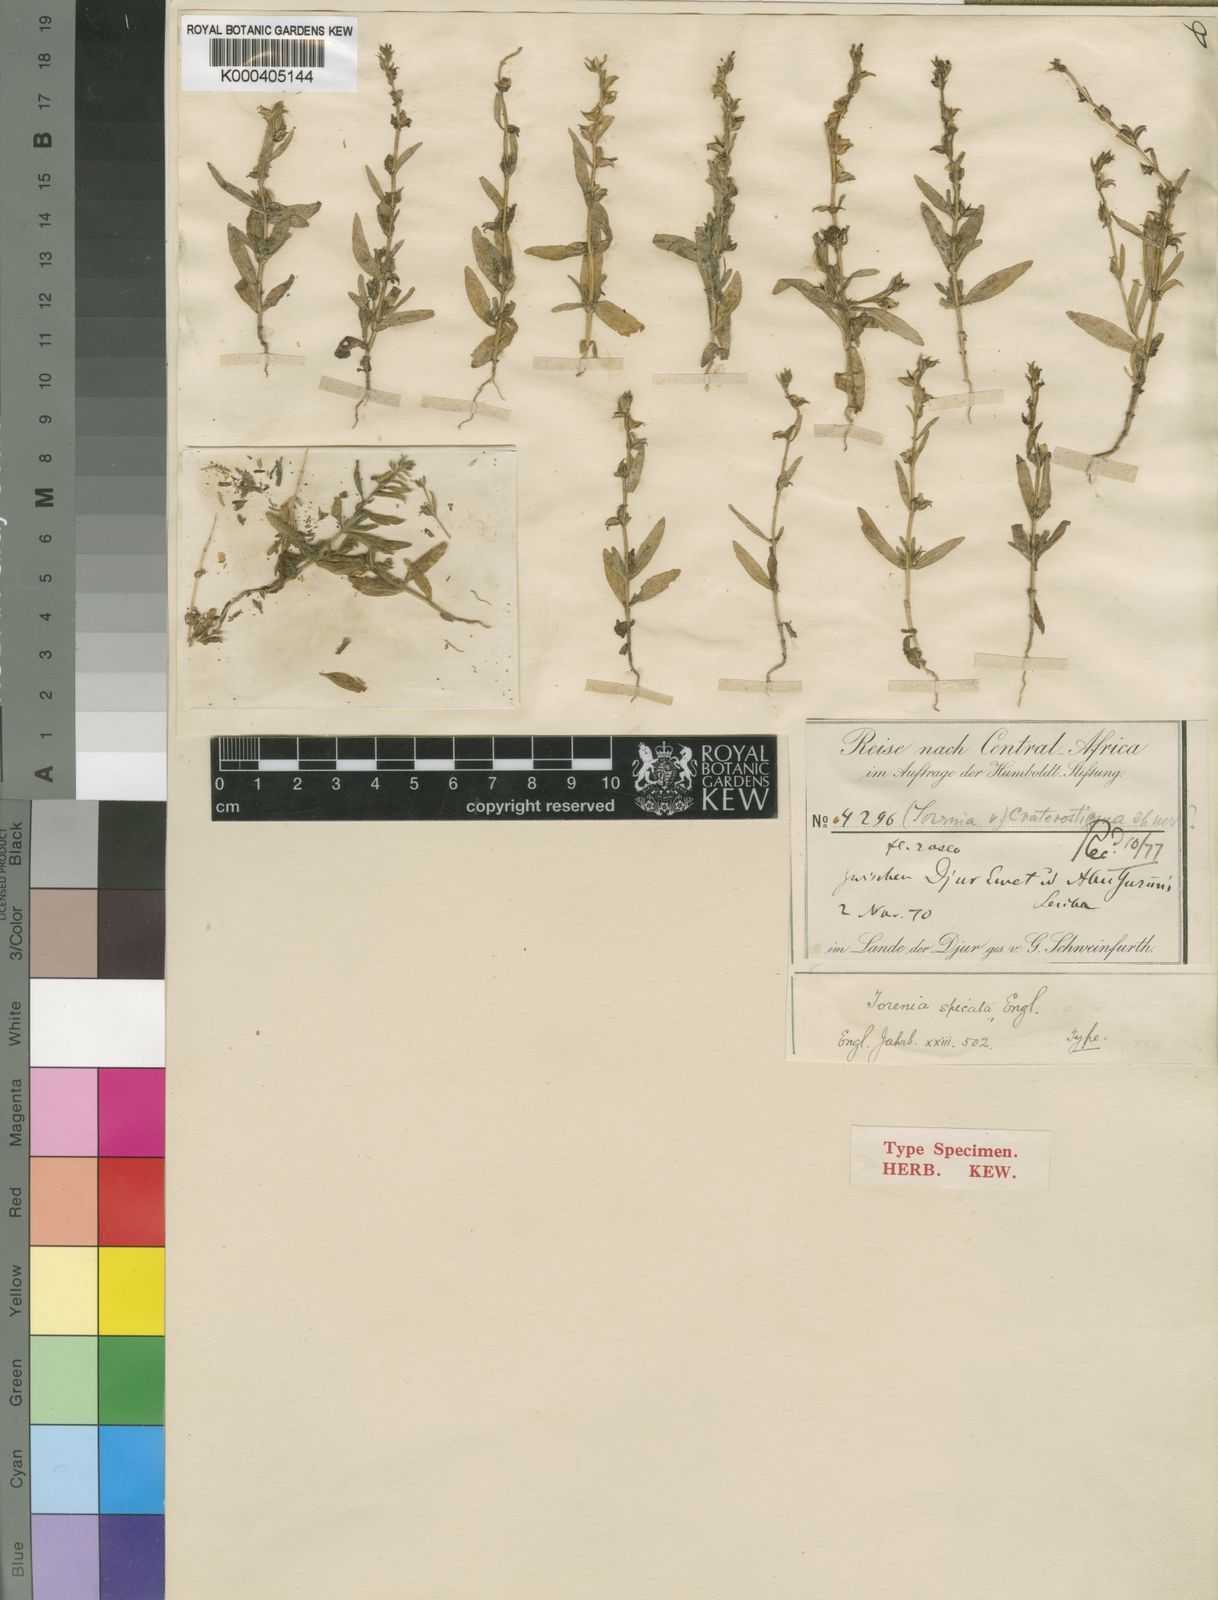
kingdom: Plantae
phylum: Tracheophyta
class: Magnoliopsida
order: Lamiales
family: Linderniaceae
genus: Crepidorhopalon
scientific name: Crepidorhopalon spicatus
